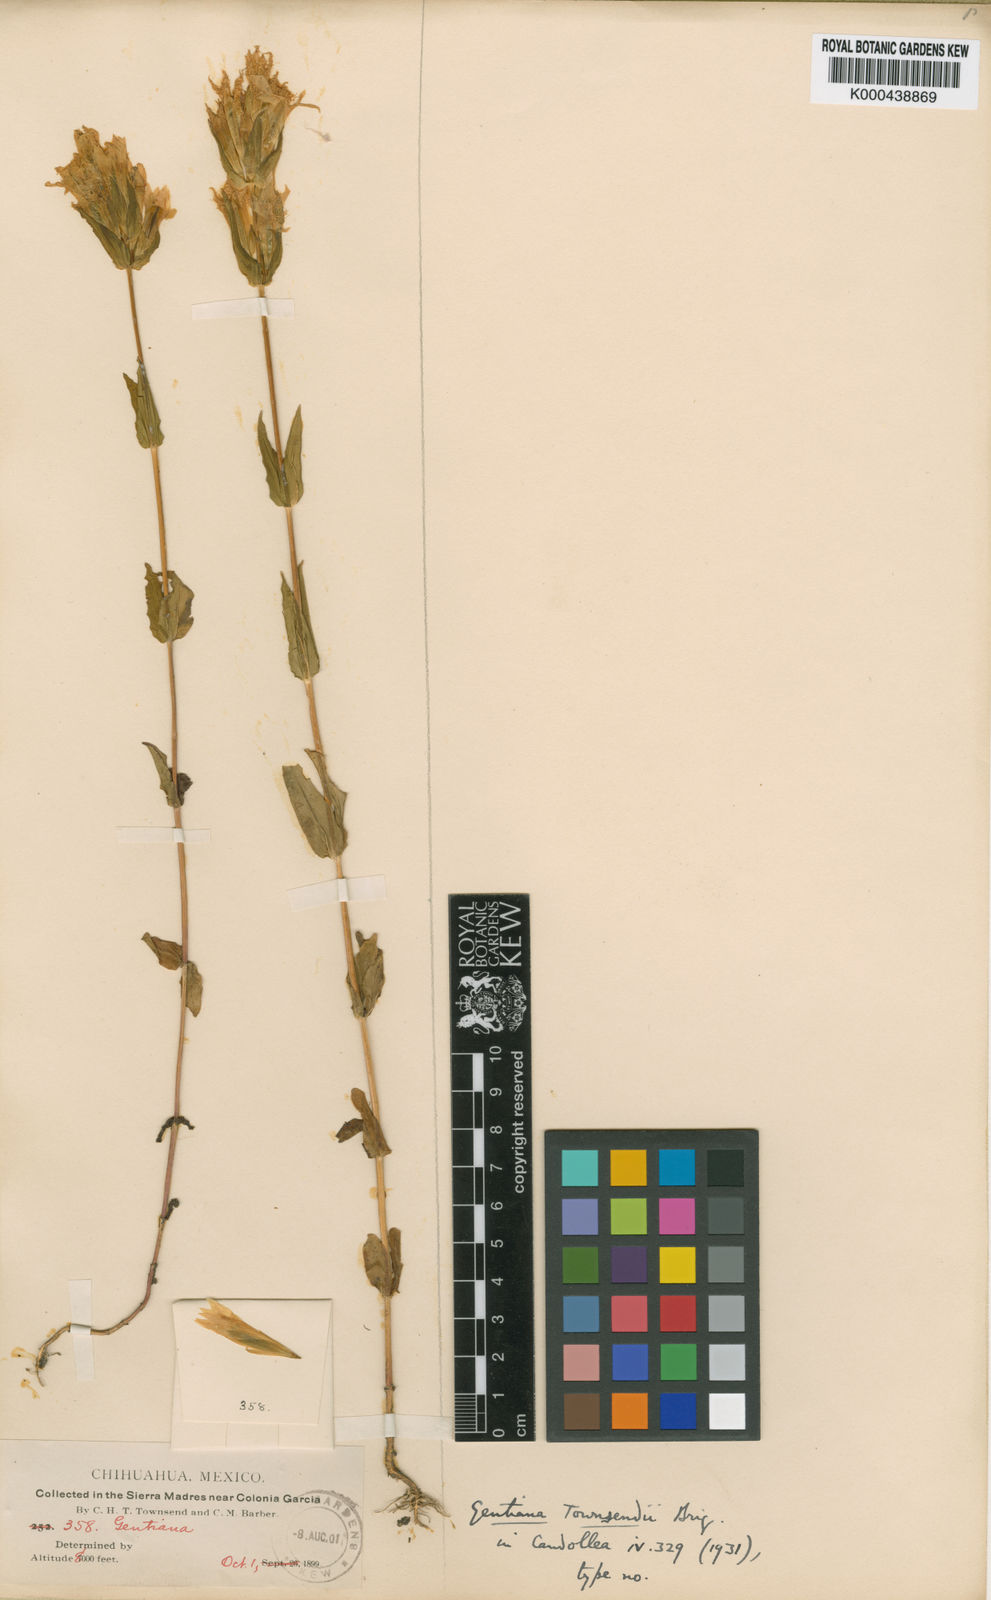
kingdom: Plantae
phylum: Tracheophyta
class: Magnoliopsida
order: Gentianales
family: Gentianaceae
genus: Gentianella
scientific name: Gentianella
